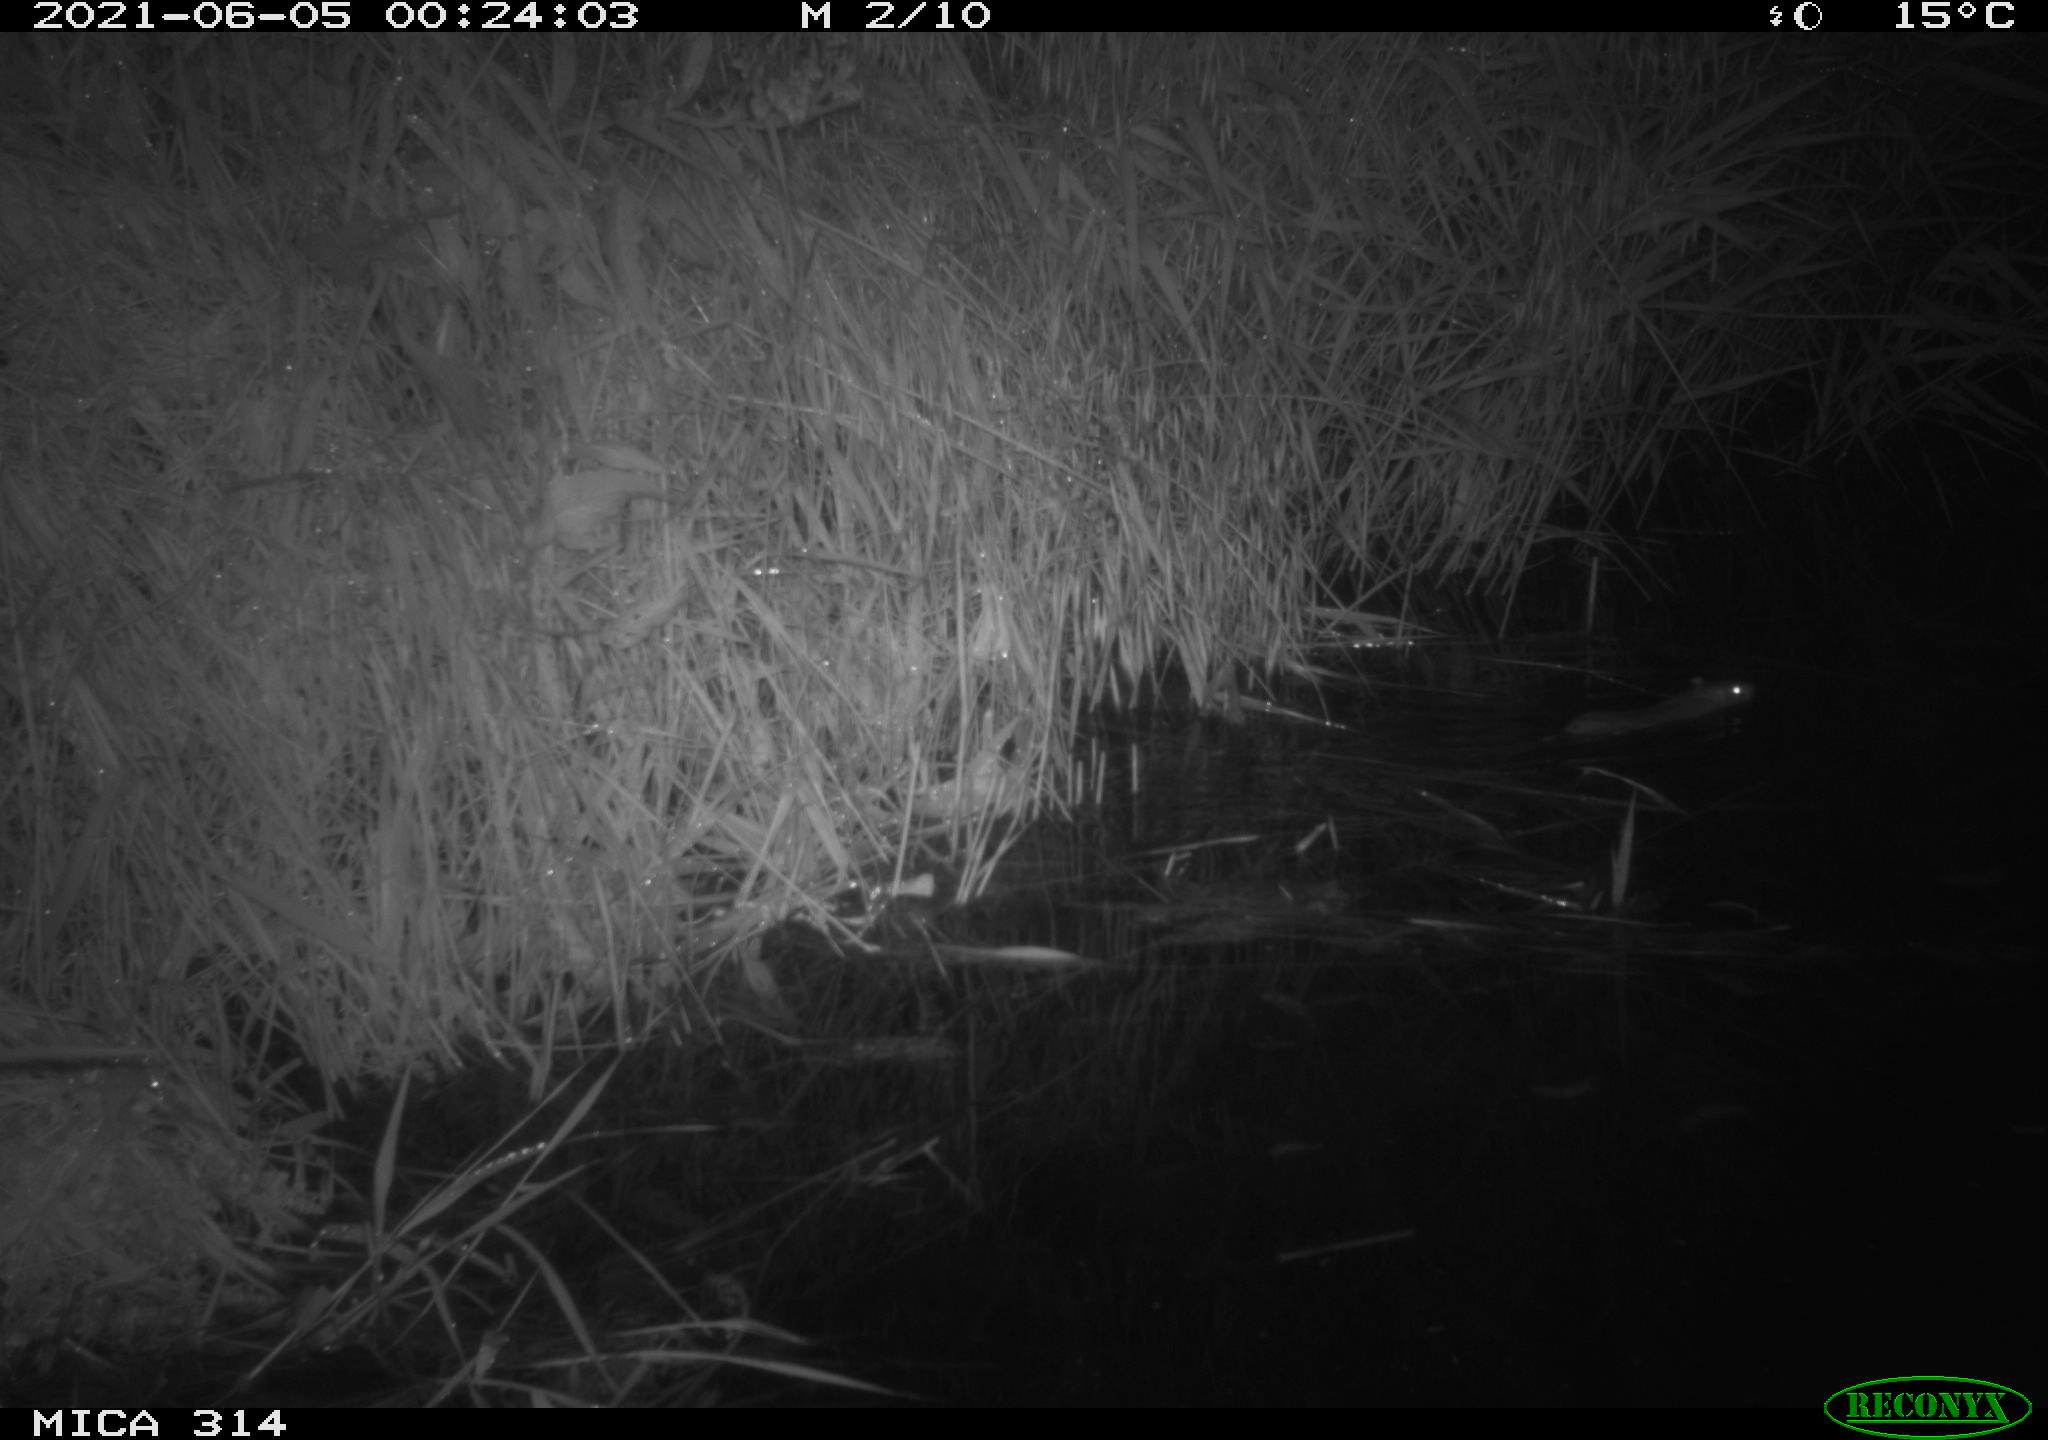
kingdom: Animalia
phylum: Chordata
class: Mammalia
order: Rodentia
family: Muridae
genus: Rattus
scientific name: Rattus norvegicus
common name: Brown rat
